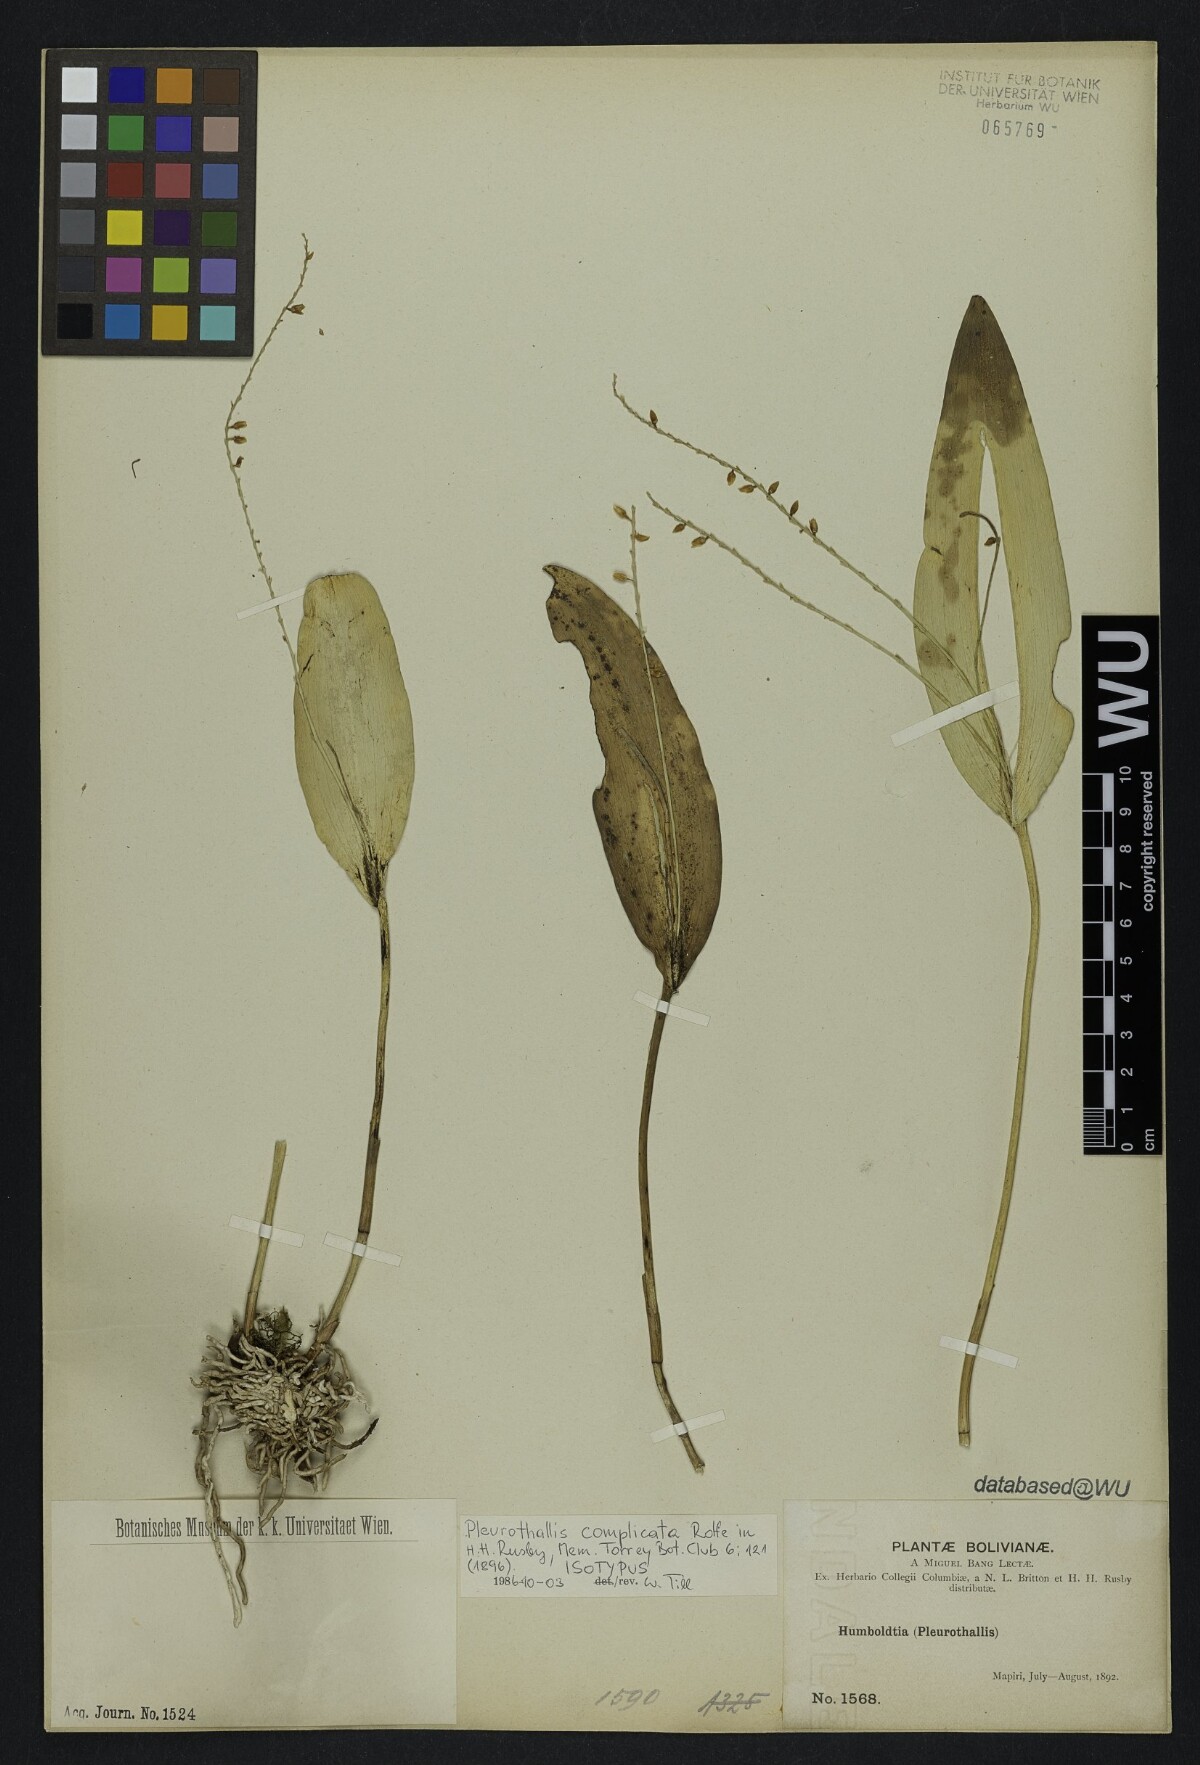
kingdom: Plantae
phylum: Tracheophyta
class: Liliopsida
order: Asparagales
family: Orchidaceae
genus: Pleurothallis
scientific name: Pleurothallis revoluta
